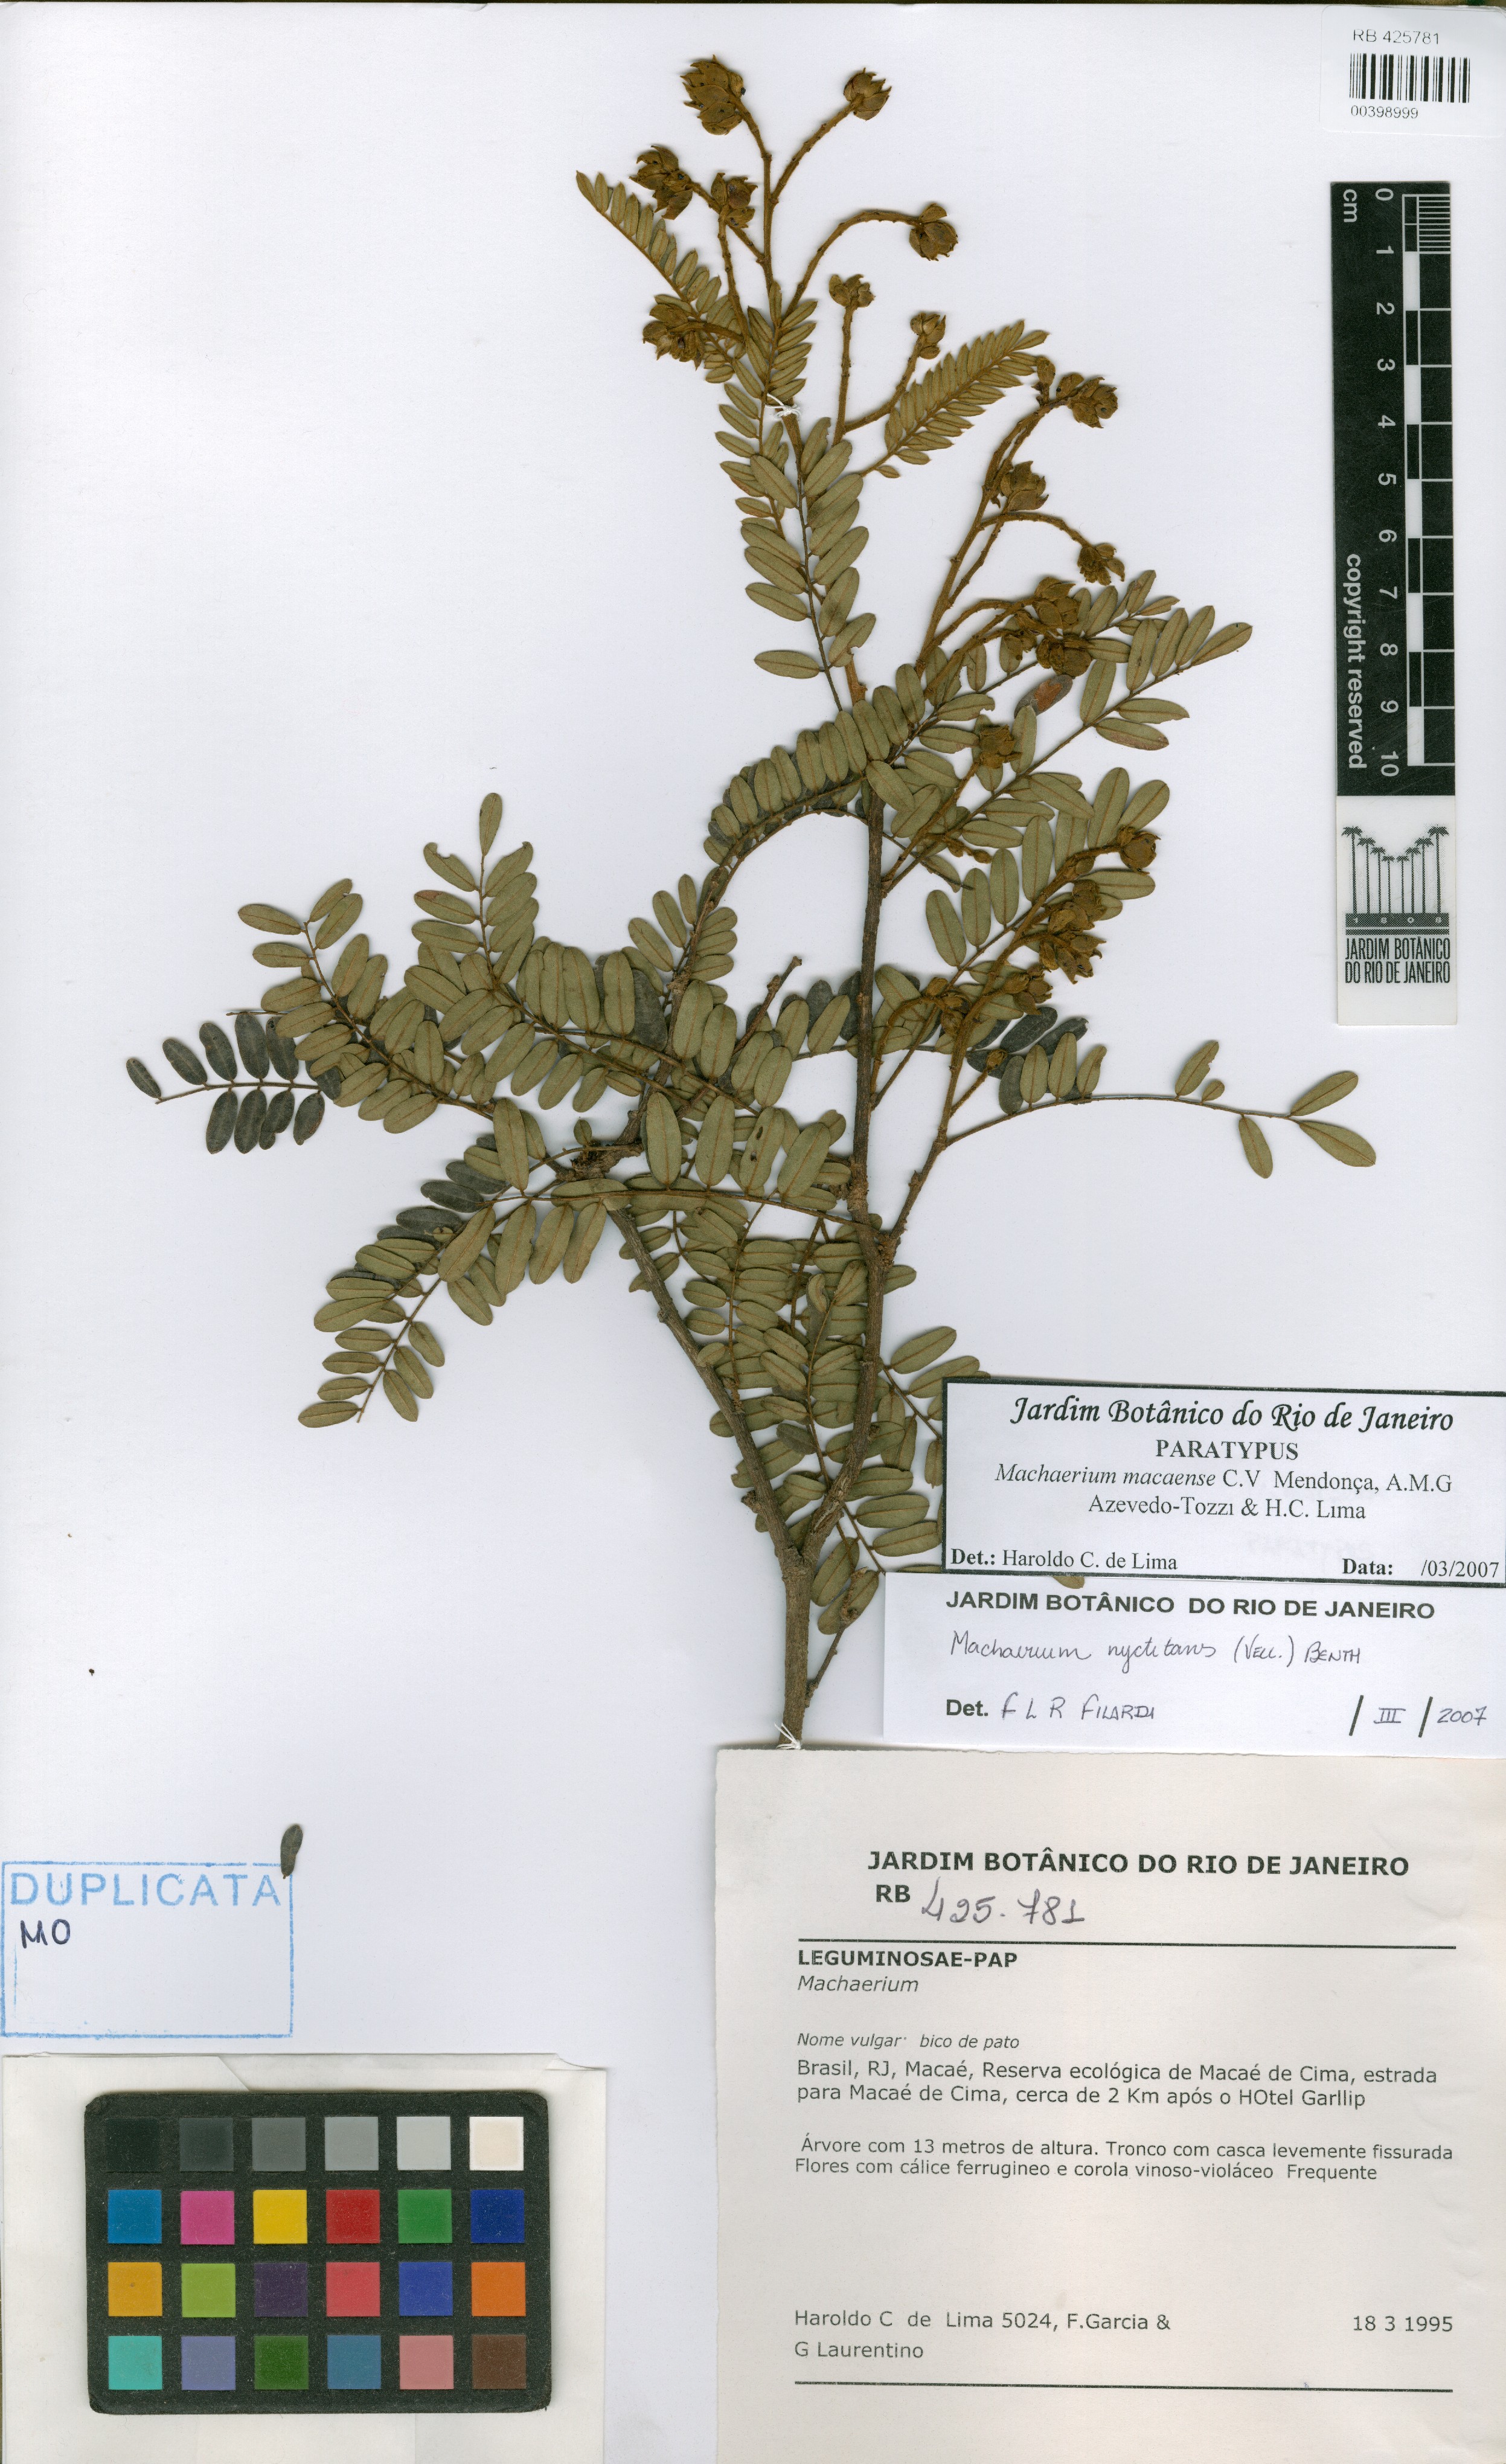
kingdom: Plantae
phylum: Tracheophyta
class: Magnoliopsida
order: Fabales
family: Fabaceae
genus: Machaerium
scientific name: Machaerium macaense
